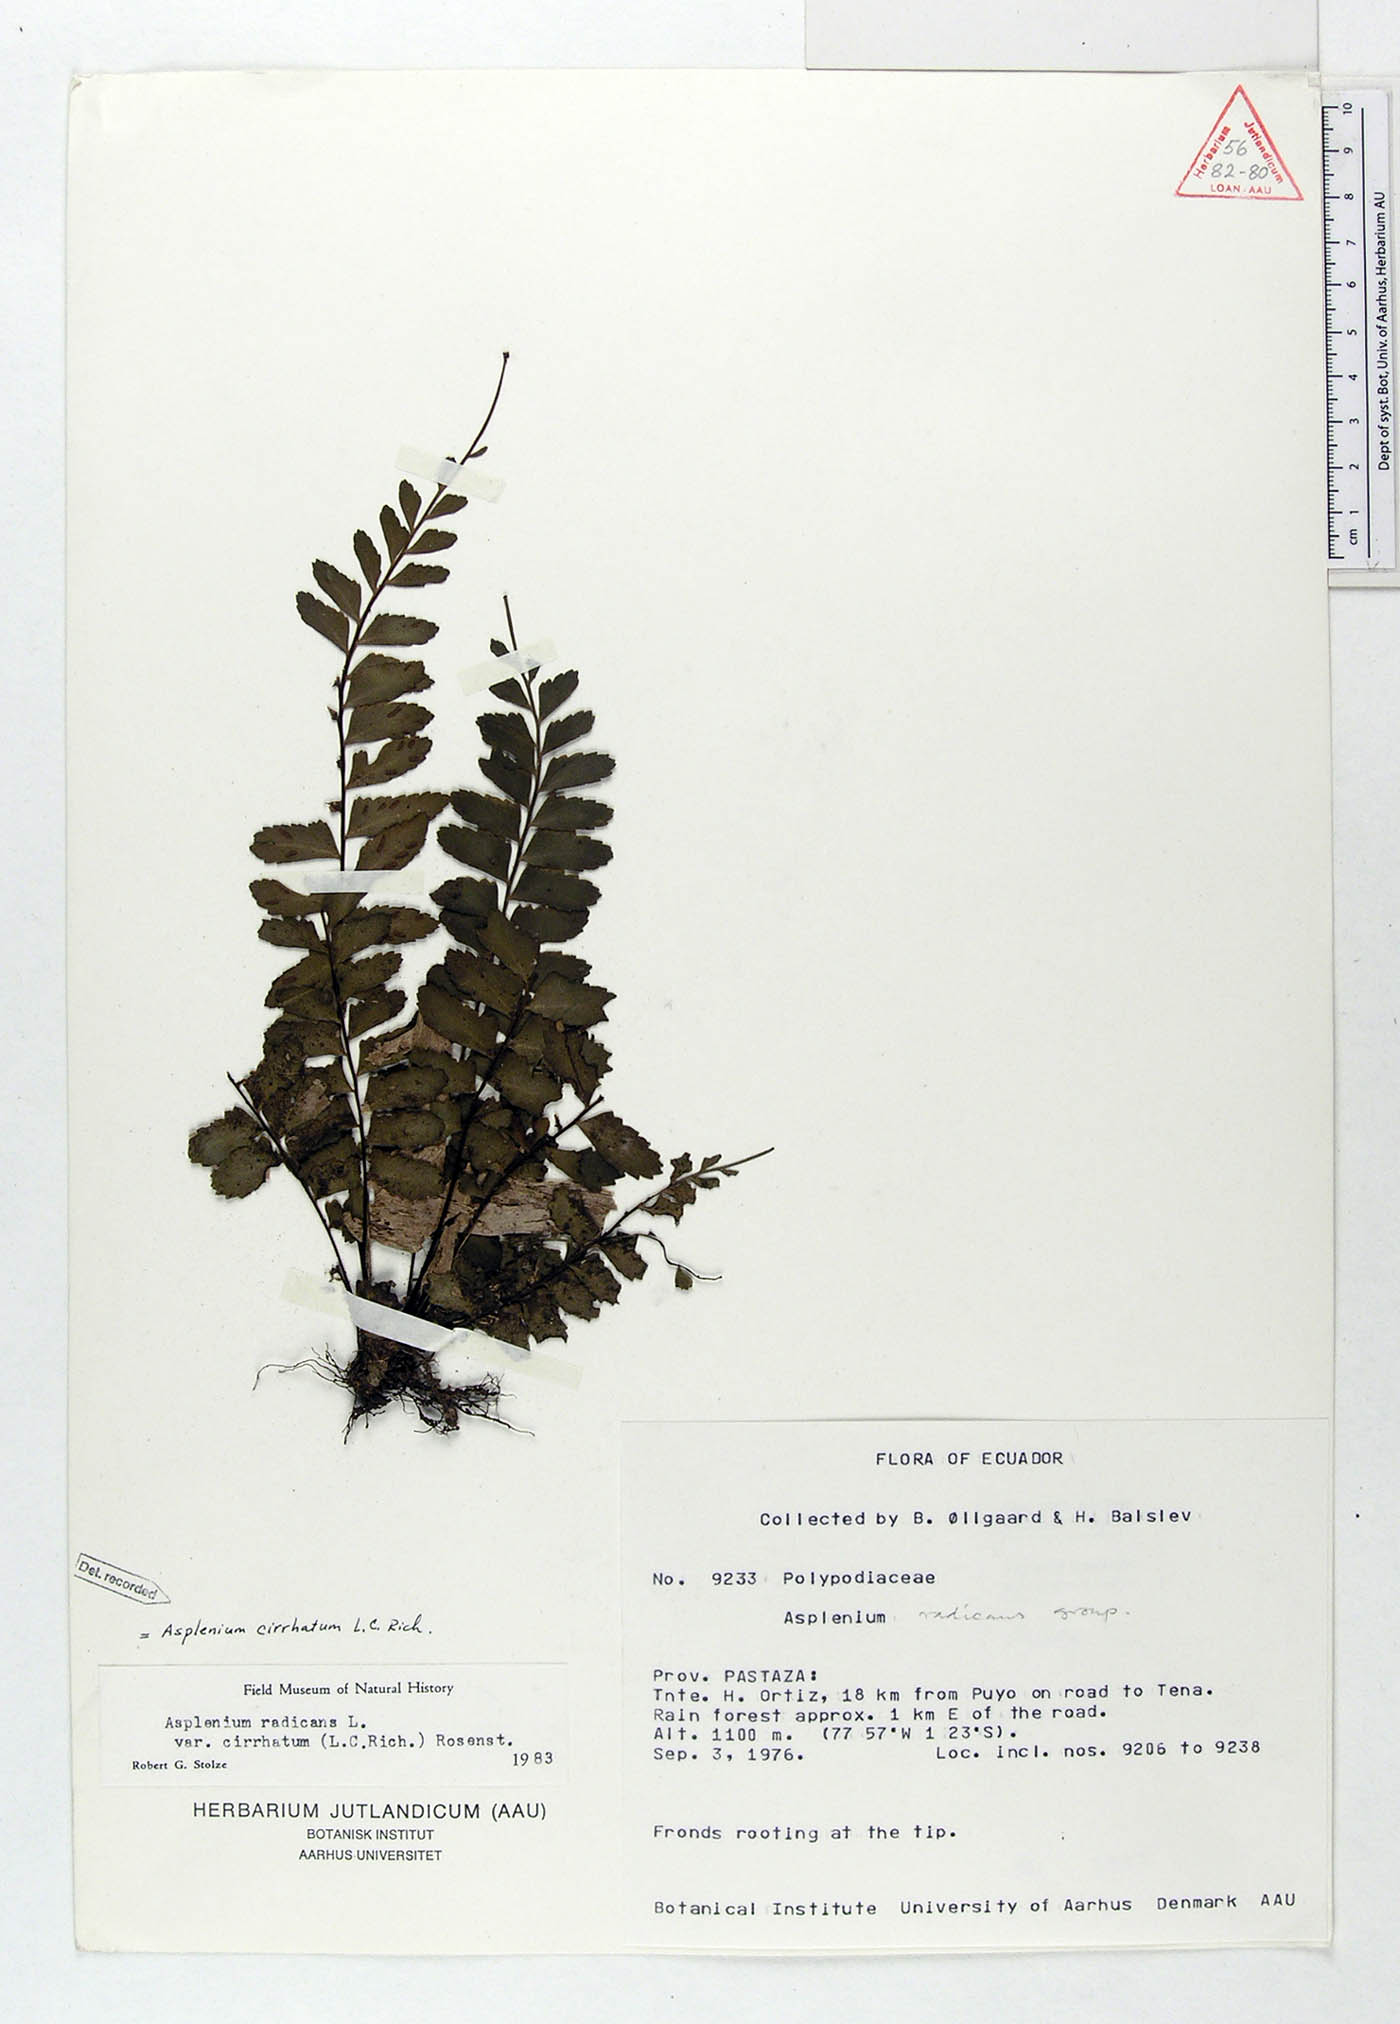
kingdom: Plantae
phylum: Tracheophyta
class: Polypodiopsida
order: Polypodiales
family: Aspleniaceae
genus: Asplenium
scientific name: Asplenium cirrhatum
